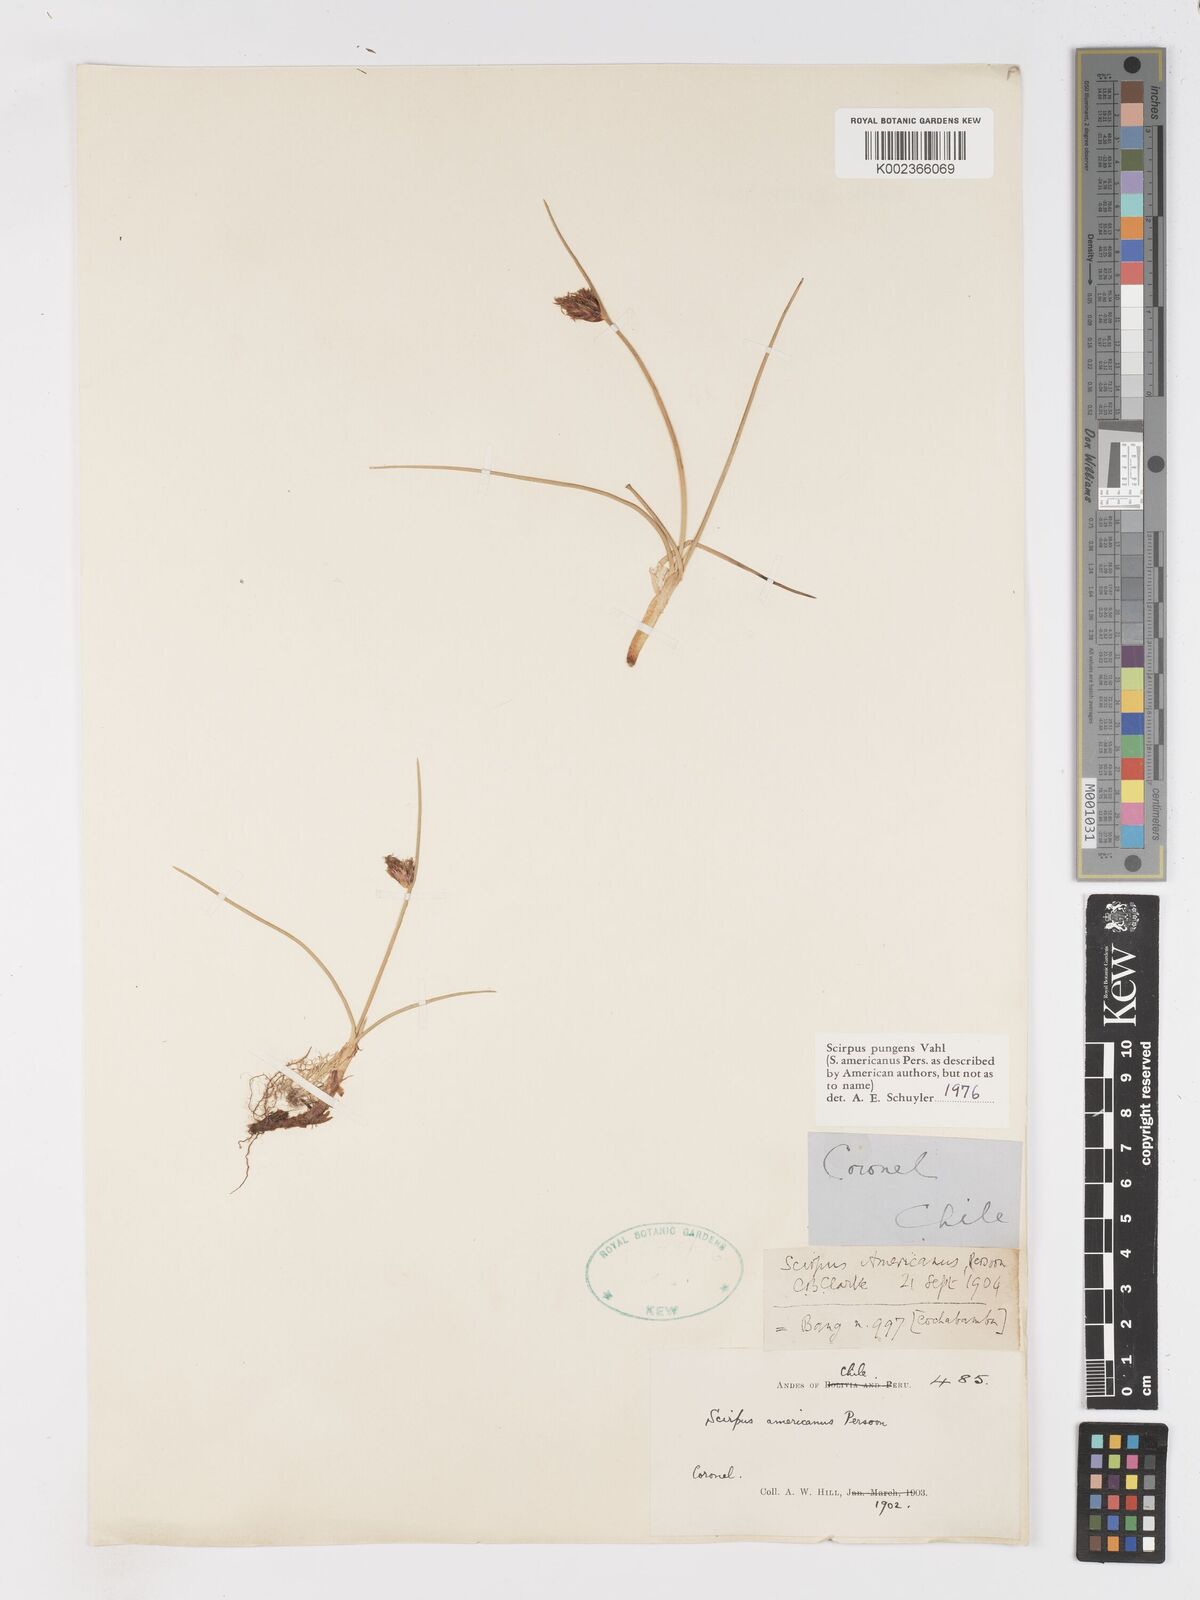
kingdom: Plantae
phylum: Tracheophyta
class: Liliopsida
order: Poales
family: Cyperaceae
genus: Schoenoplectus
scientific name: Schoenoplectus pungens
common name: Sharp club-rush
